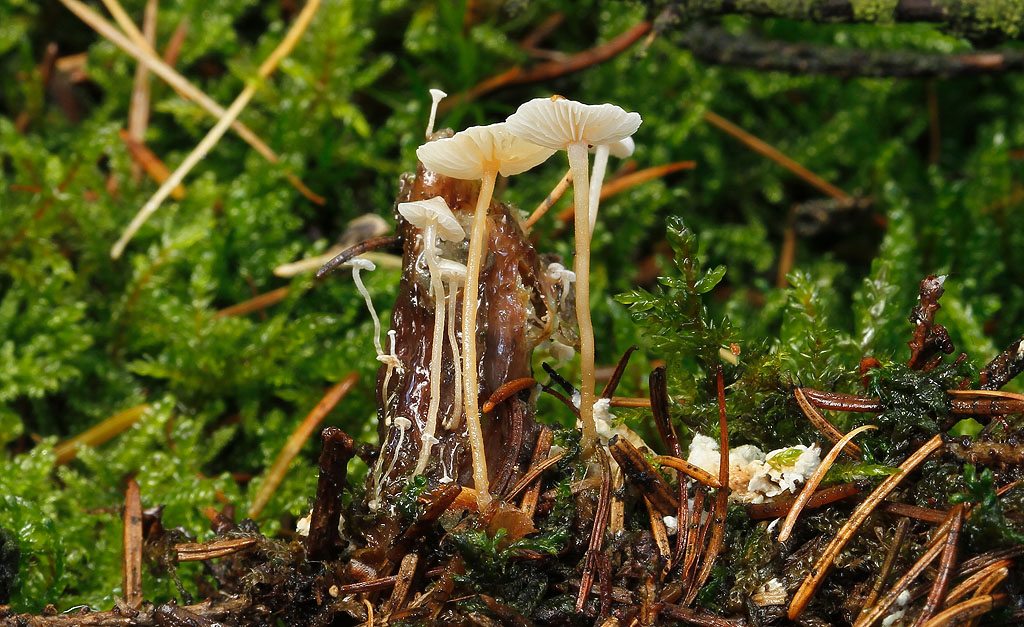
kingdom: Fungi
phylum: Basidiomycota
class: Agaricomycetes
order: Agaricales
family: Tricholomataceae
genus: Collybia
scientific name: Collybia cirrhata
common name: silke-lighat
